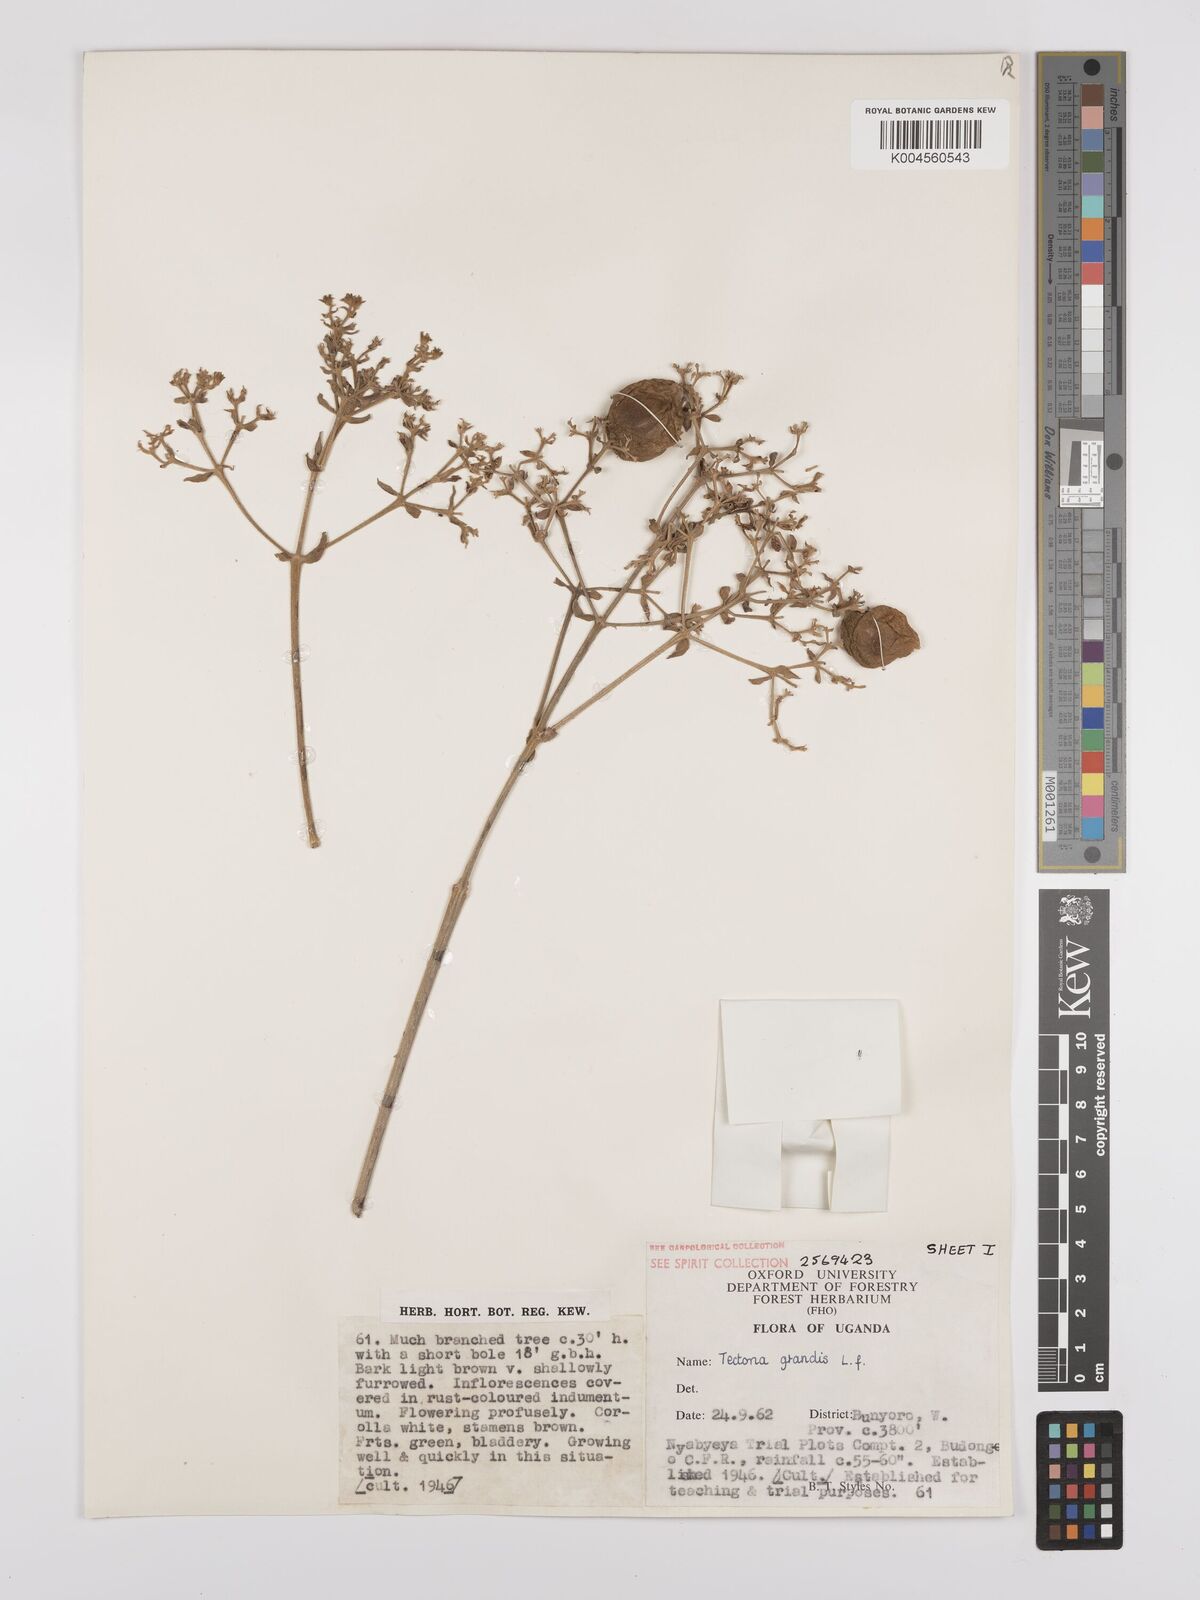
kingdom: Plantae
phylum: Tracheophyta
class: Magnoliopsida
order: Lamiales
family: Lamiaceae
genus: Tectona
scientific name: Tectona grandis
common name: Teak
